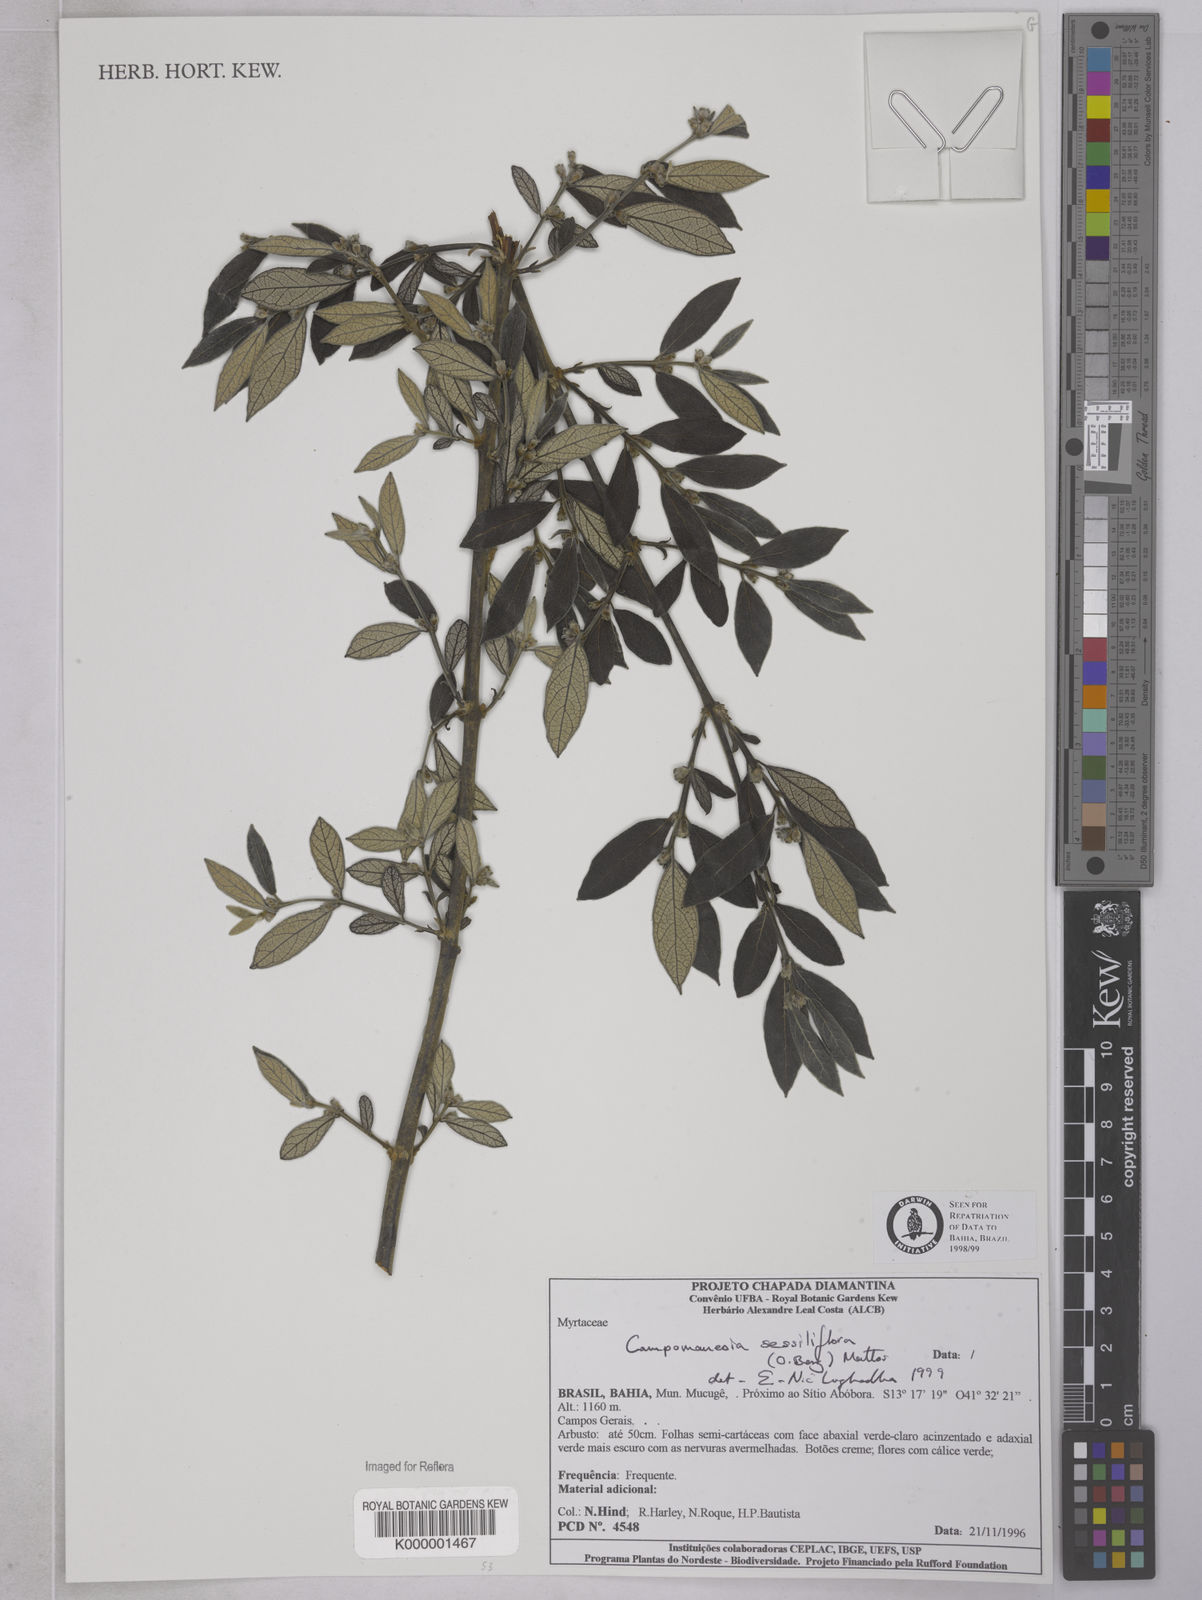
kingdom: Plantae
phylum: Tracheophyta
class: Magnoliopsida
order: Myrtales
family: Myrtaceae
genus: Campomanesia
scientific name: Campomanesia sessiliflora
